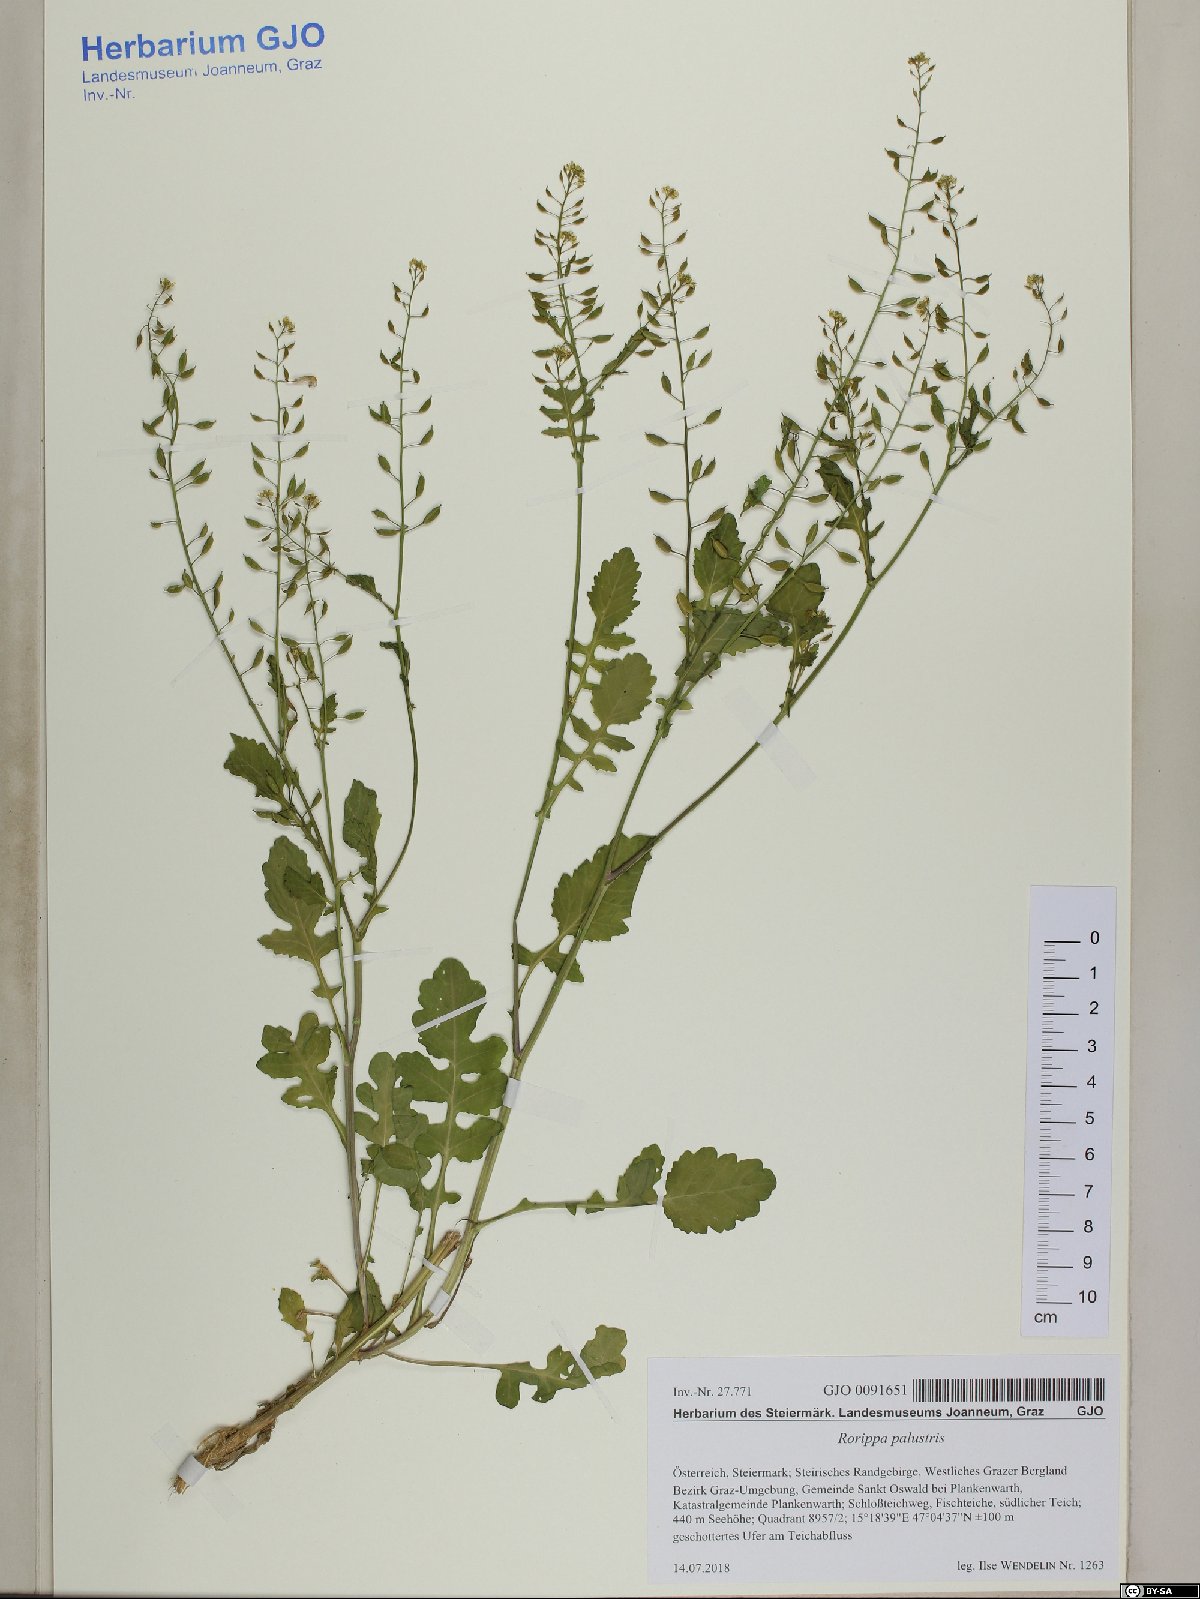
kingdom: Plantae
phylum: Tracheophyta
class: Magnoliopsida
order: Brassicales
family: Brassicaceae
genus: Rorippa
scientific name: Rorippa palustris
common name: Marsh yellow-cress
